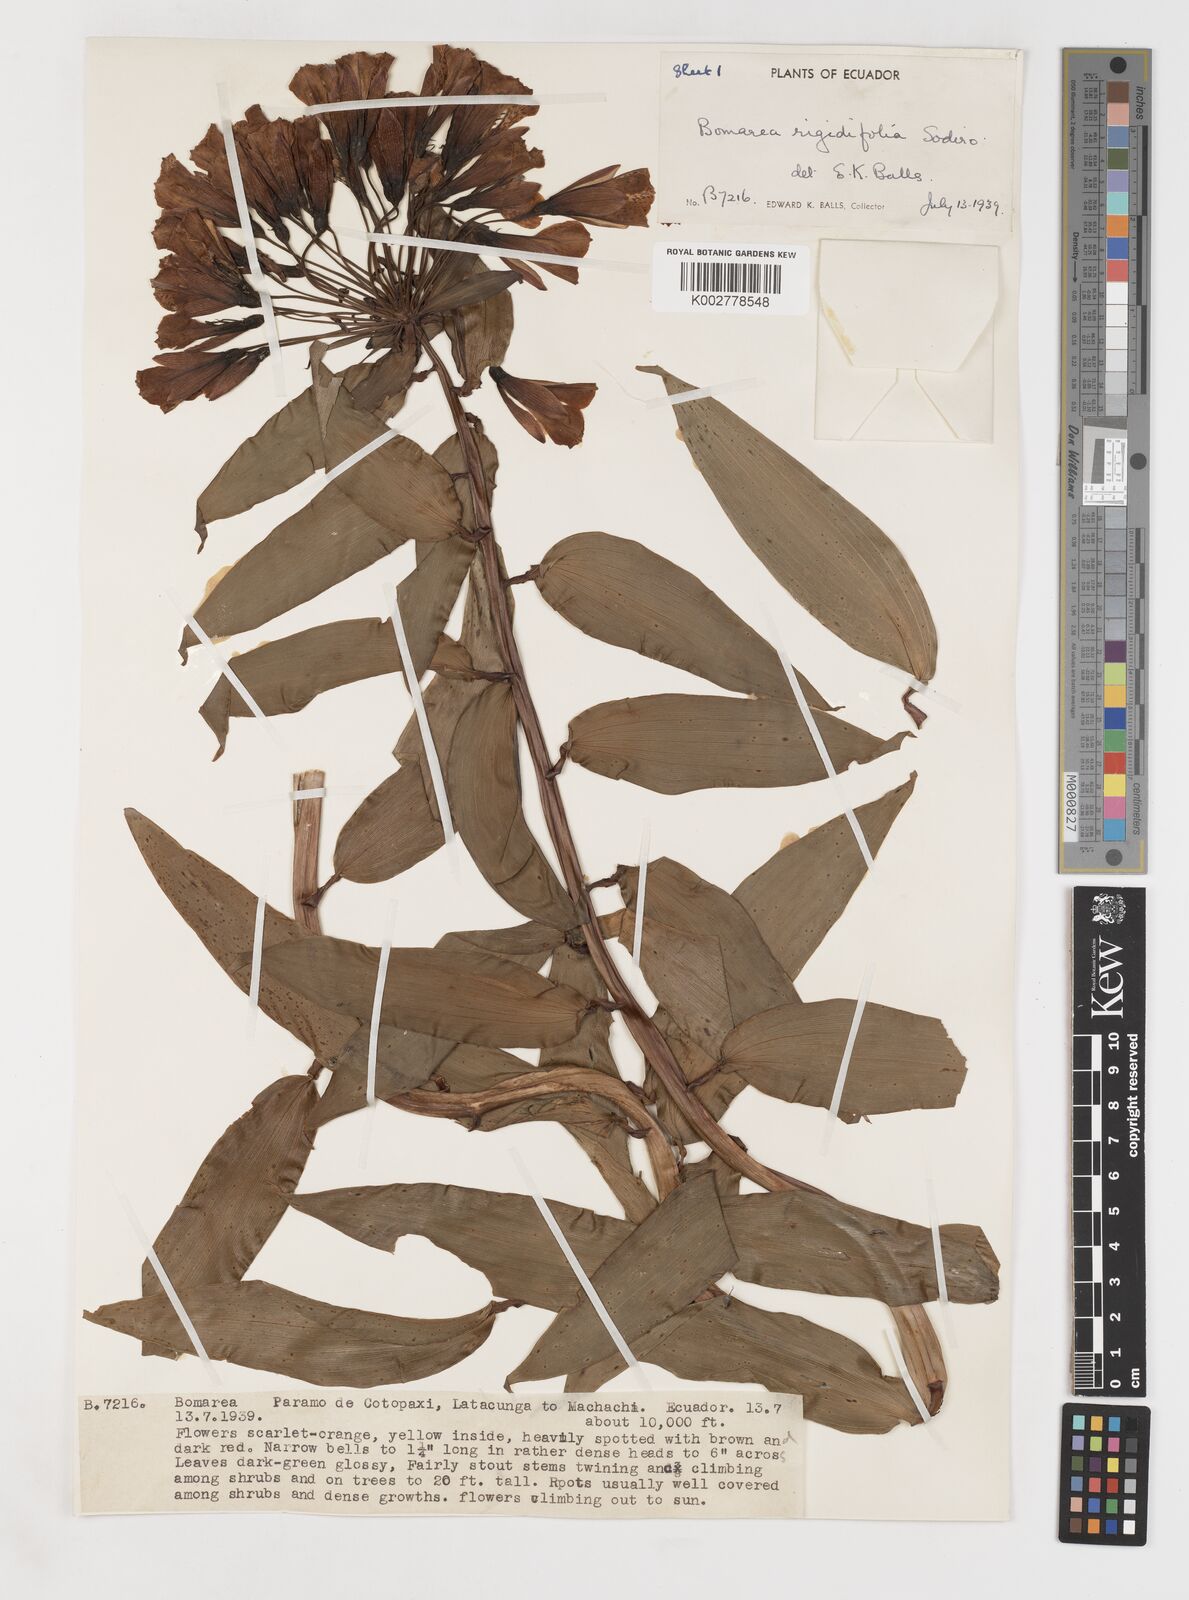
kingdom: Plantae
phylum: Tracheophyta
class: Liliopsida
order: Liliales
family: Alstroemeriaceae
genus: Bomarea
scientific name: Bomarea multiflora
